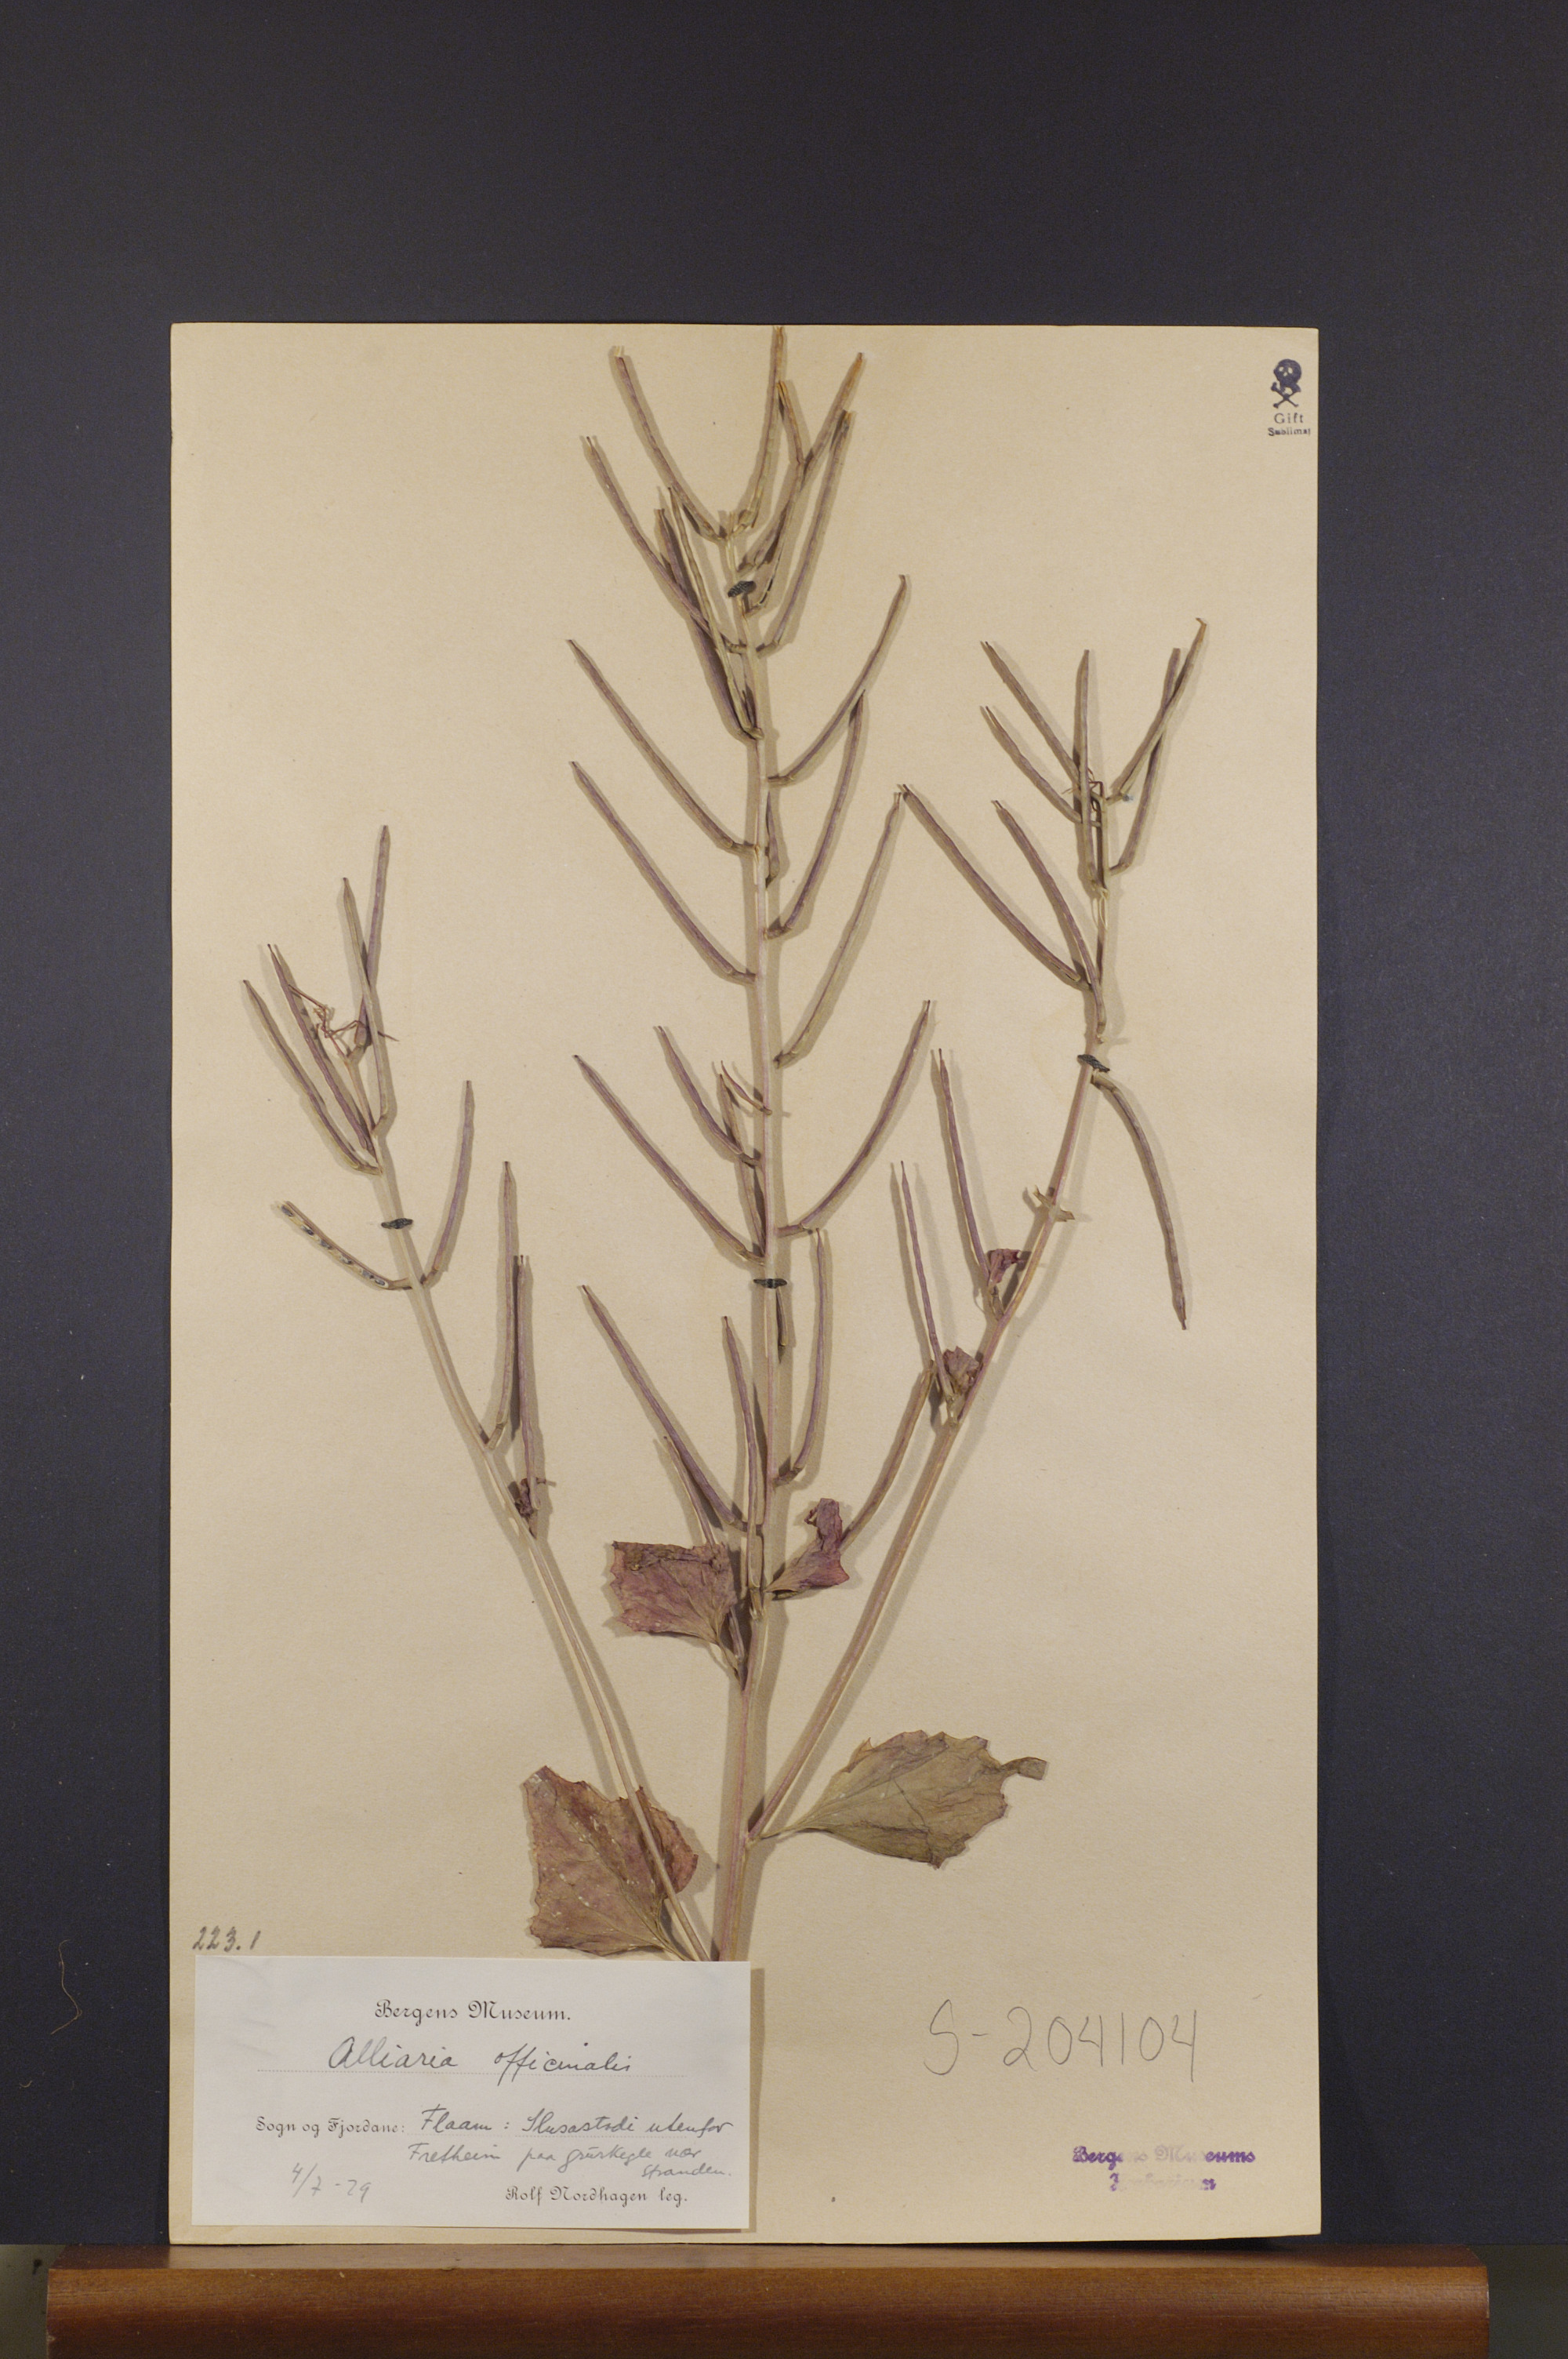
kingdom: Plantae
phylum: Tracheophyta
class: Magnoliopsida
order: Brassicales
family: Brassicaceae
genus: Alliaria
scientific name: Alliaria petiolata
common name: Garlic mustard
